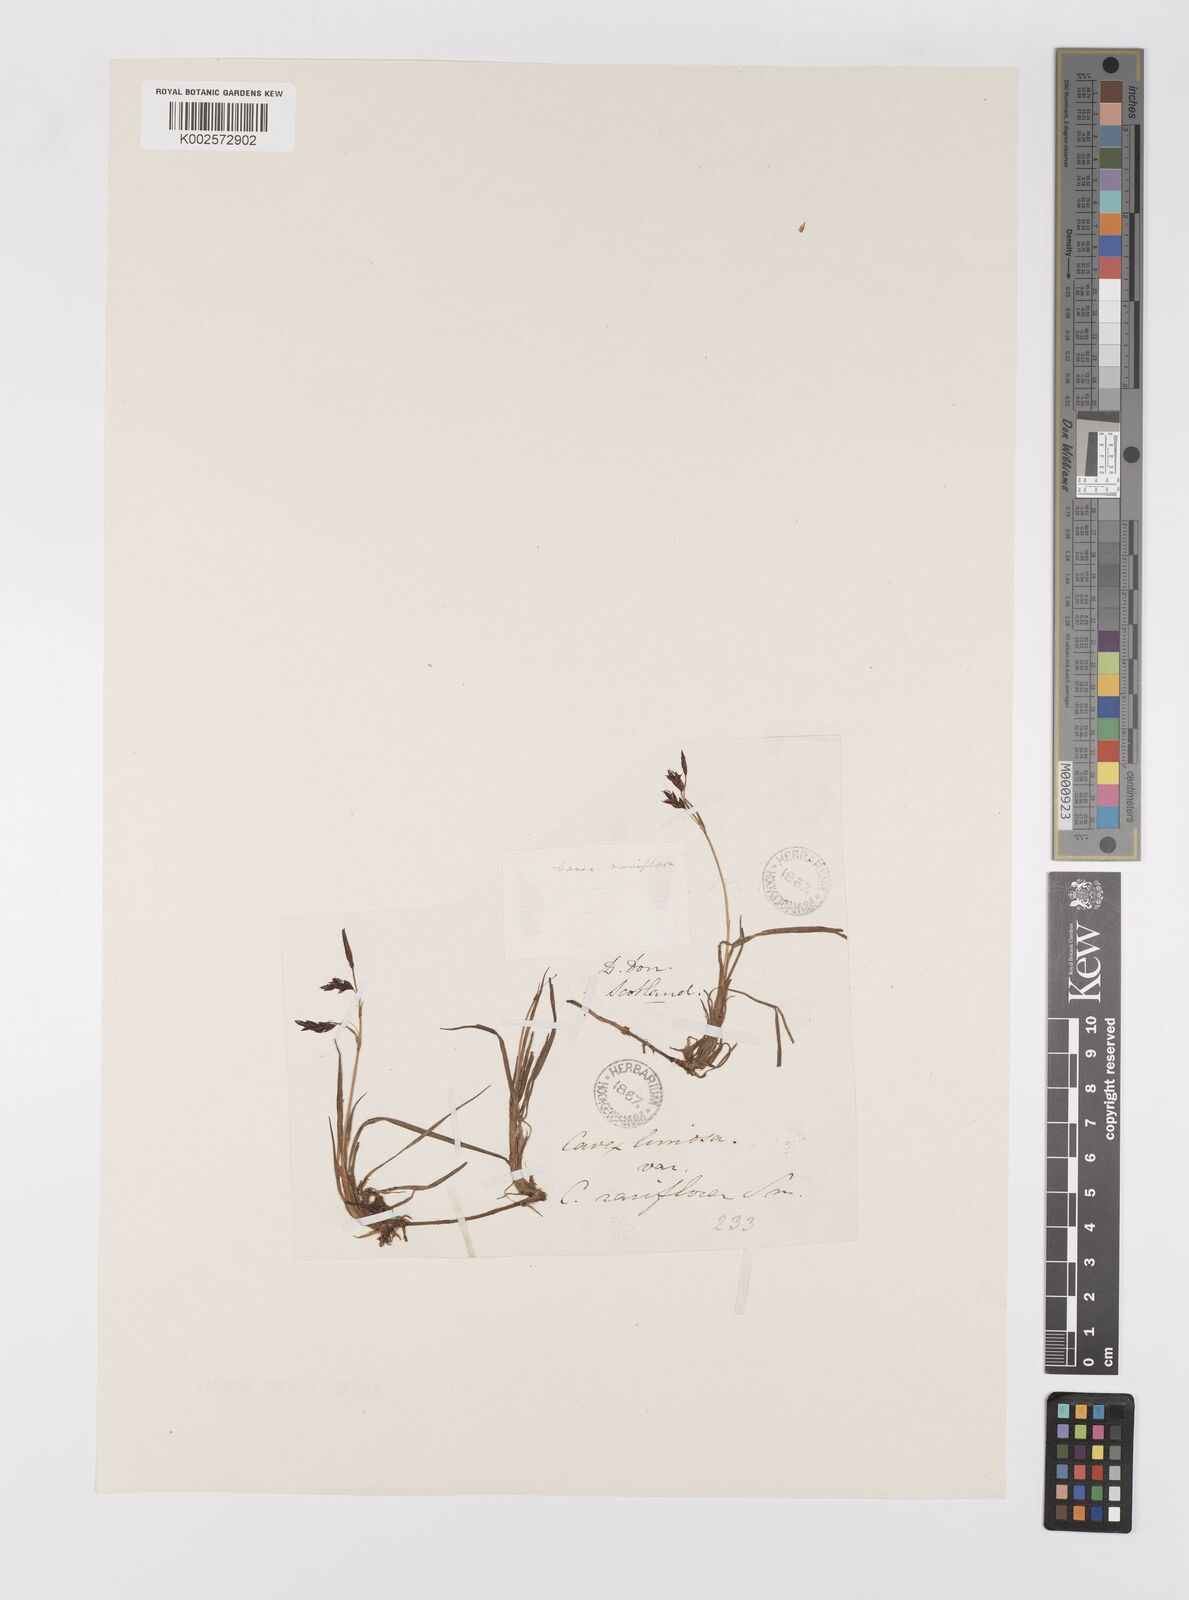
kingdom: Plantae
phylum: Tracheophyta
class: Liliopsida
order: Poales
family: Cyperaceae
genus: Carex
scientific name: Carex rariflora
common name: Loose-flowered alpine sedge
